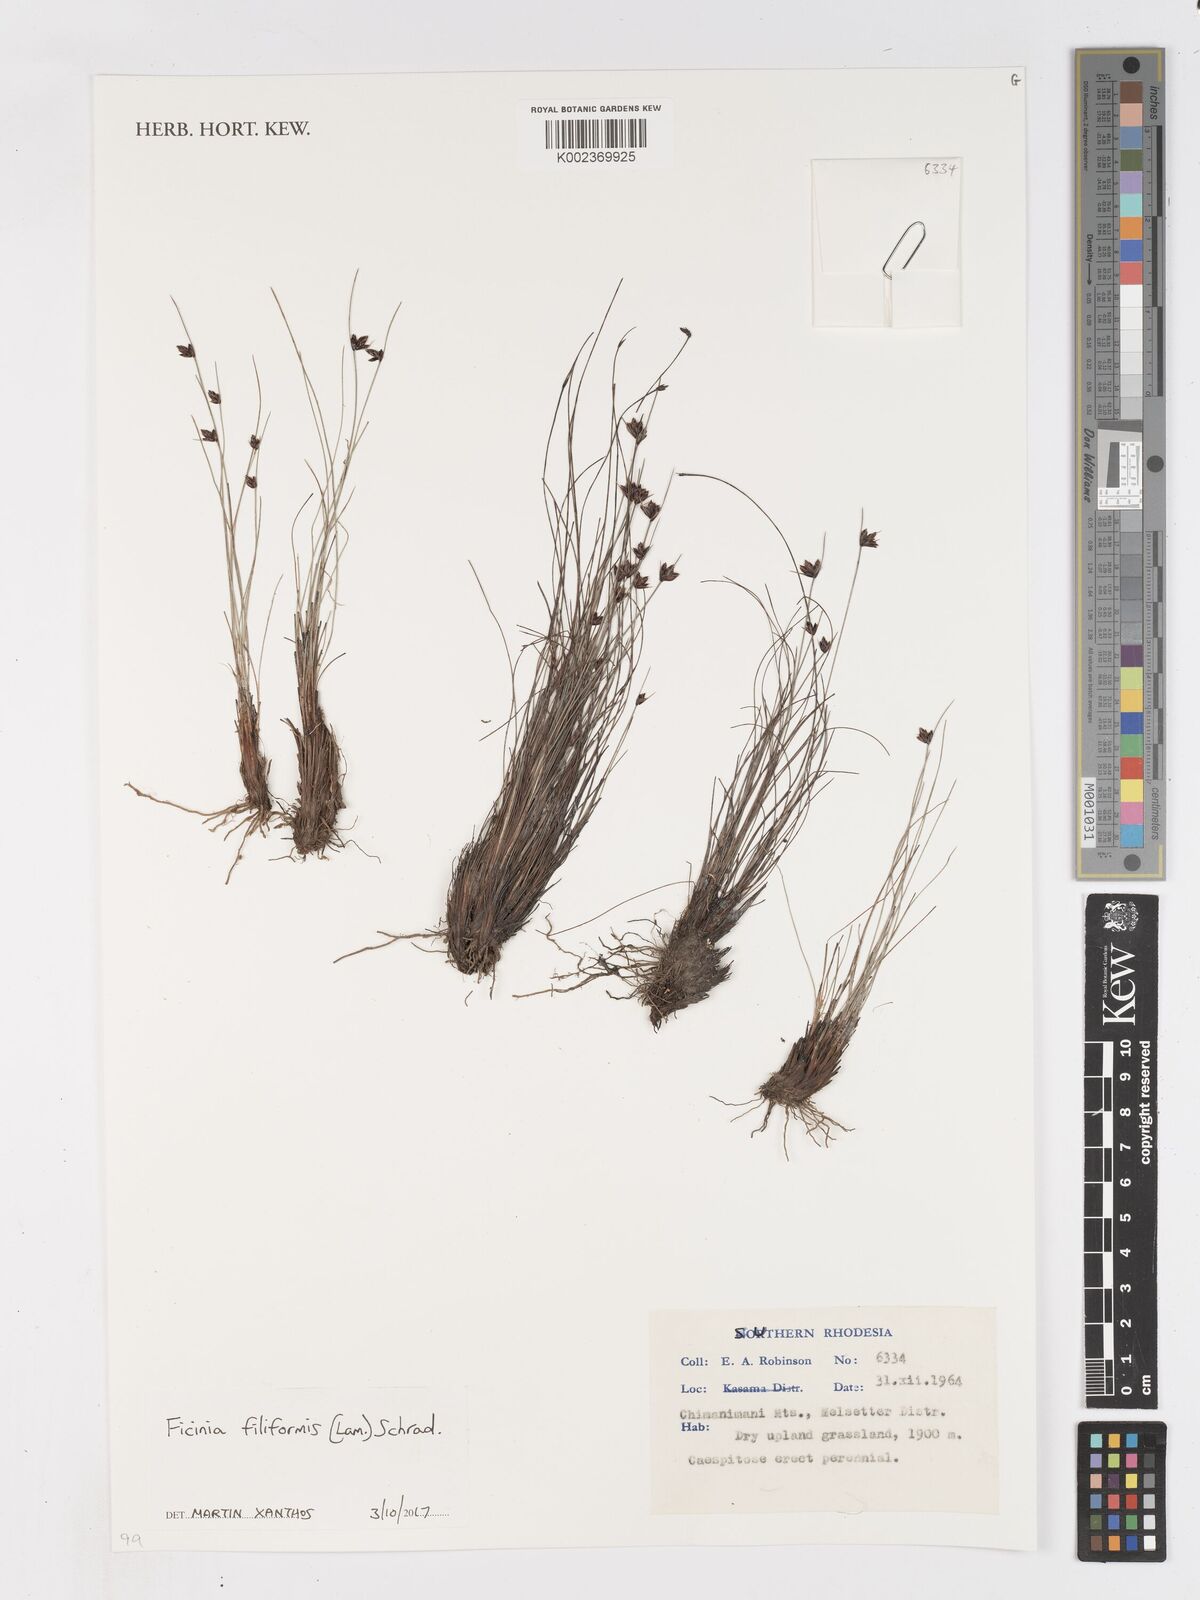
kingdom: Plantae
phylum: Tracheophyta
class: Liliopsida
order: Poales
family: Cyperaceae
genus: Ficinia
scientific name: Ficinia filiformis
